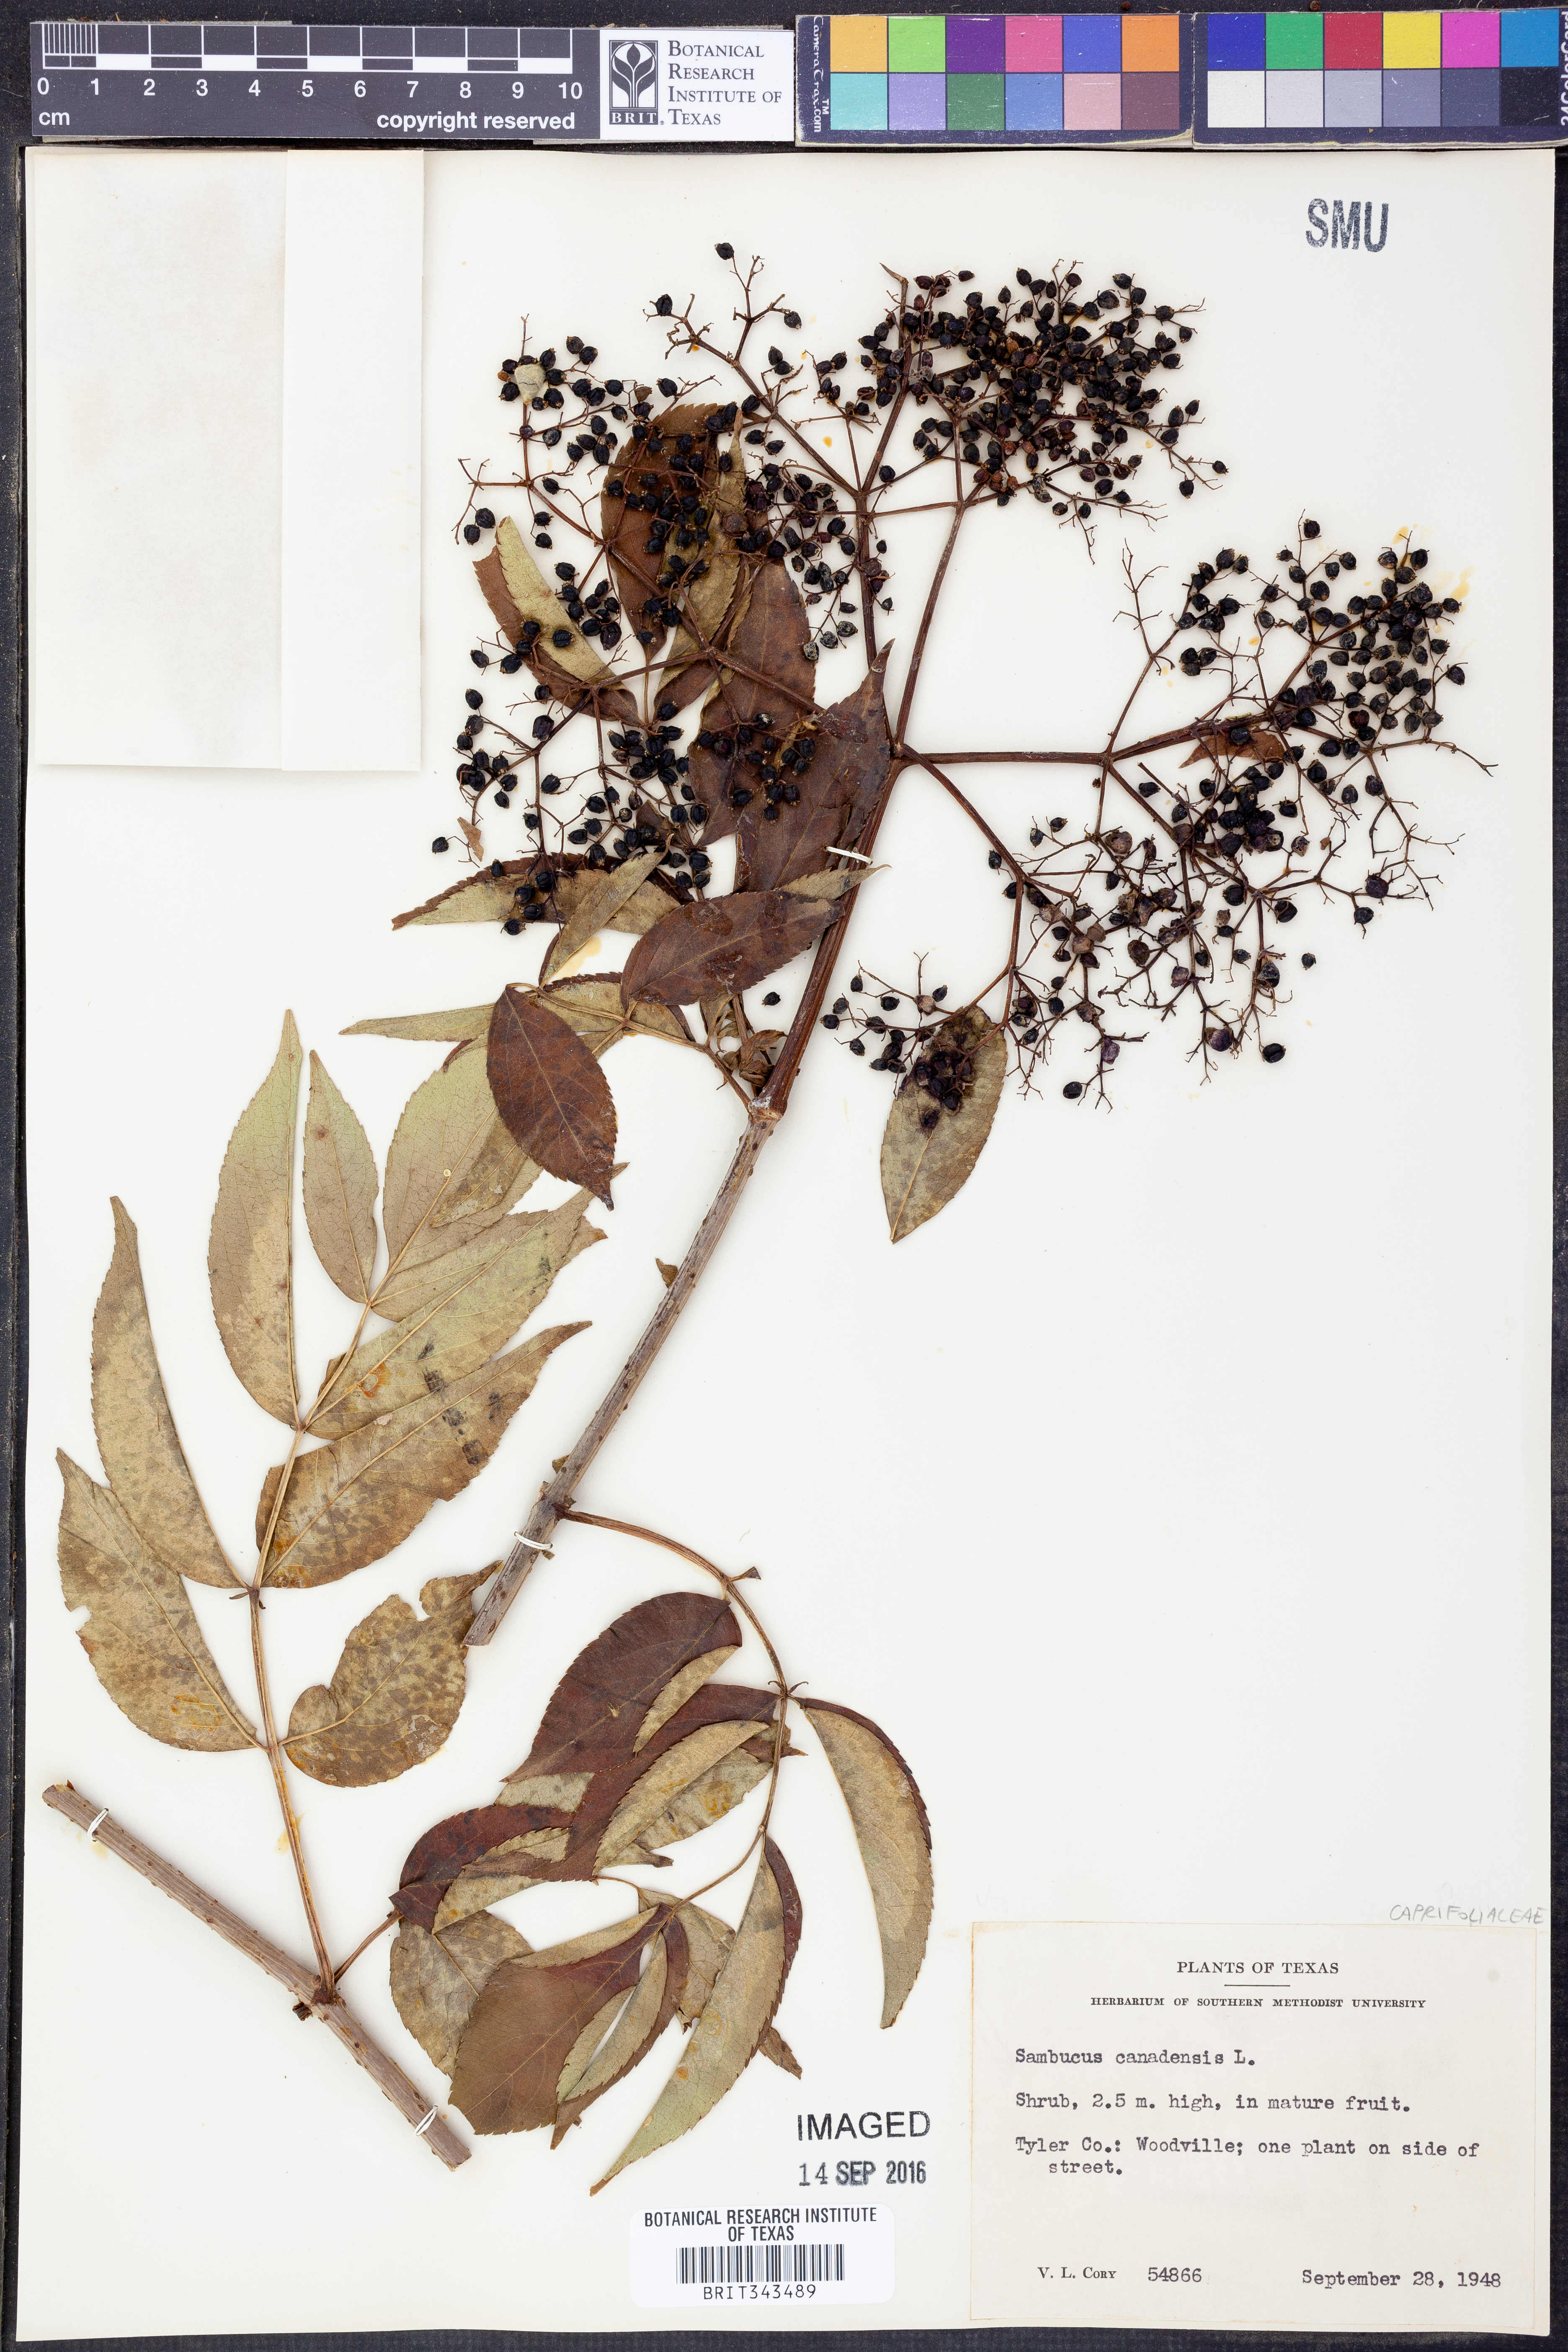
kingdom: Plantae
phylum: Tracheophyta
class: Magnoliopsida
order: Dipsacales
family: Viburnaceae
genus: Sambucus
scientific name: Sambucus canadensis
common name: American elder
